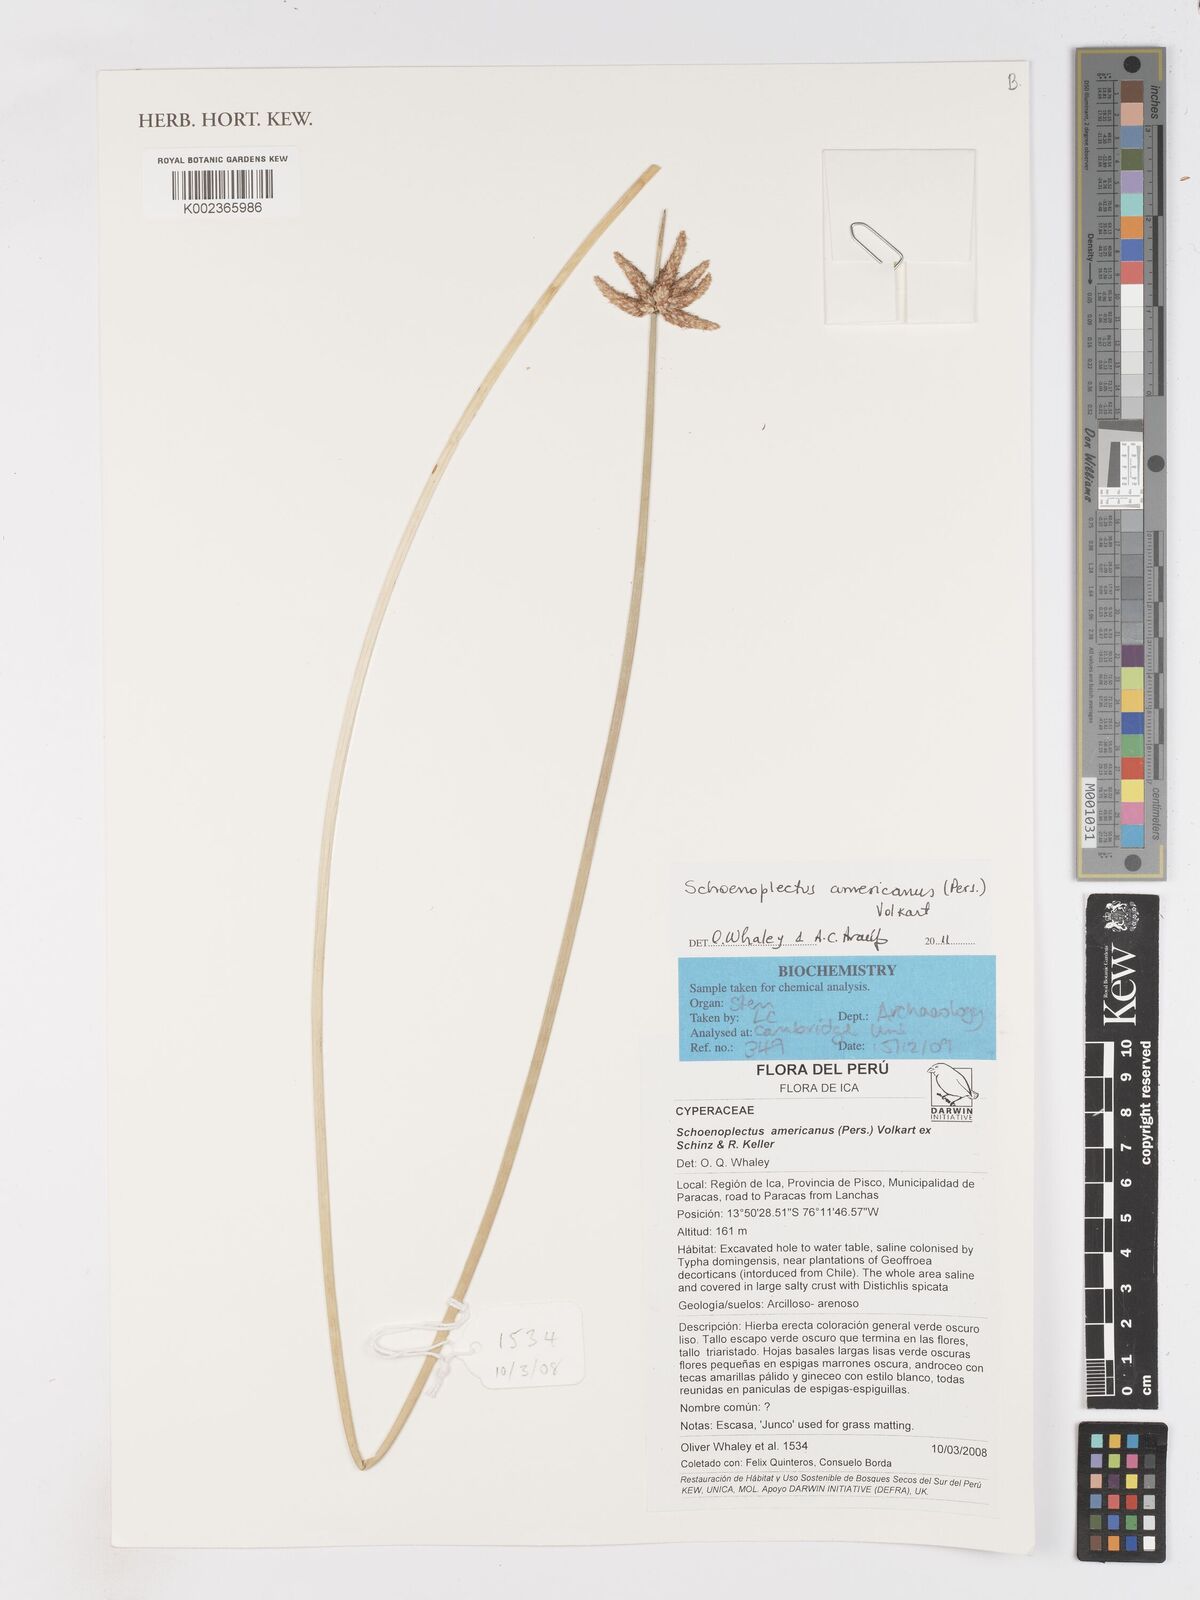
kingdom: Plantae
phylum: Tracheophyta
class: Liliopsida
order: Poales
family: Cyperaceae
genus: Schoenoplectus
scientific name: Schoenoplectus americanus
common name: American three-square bulrush
